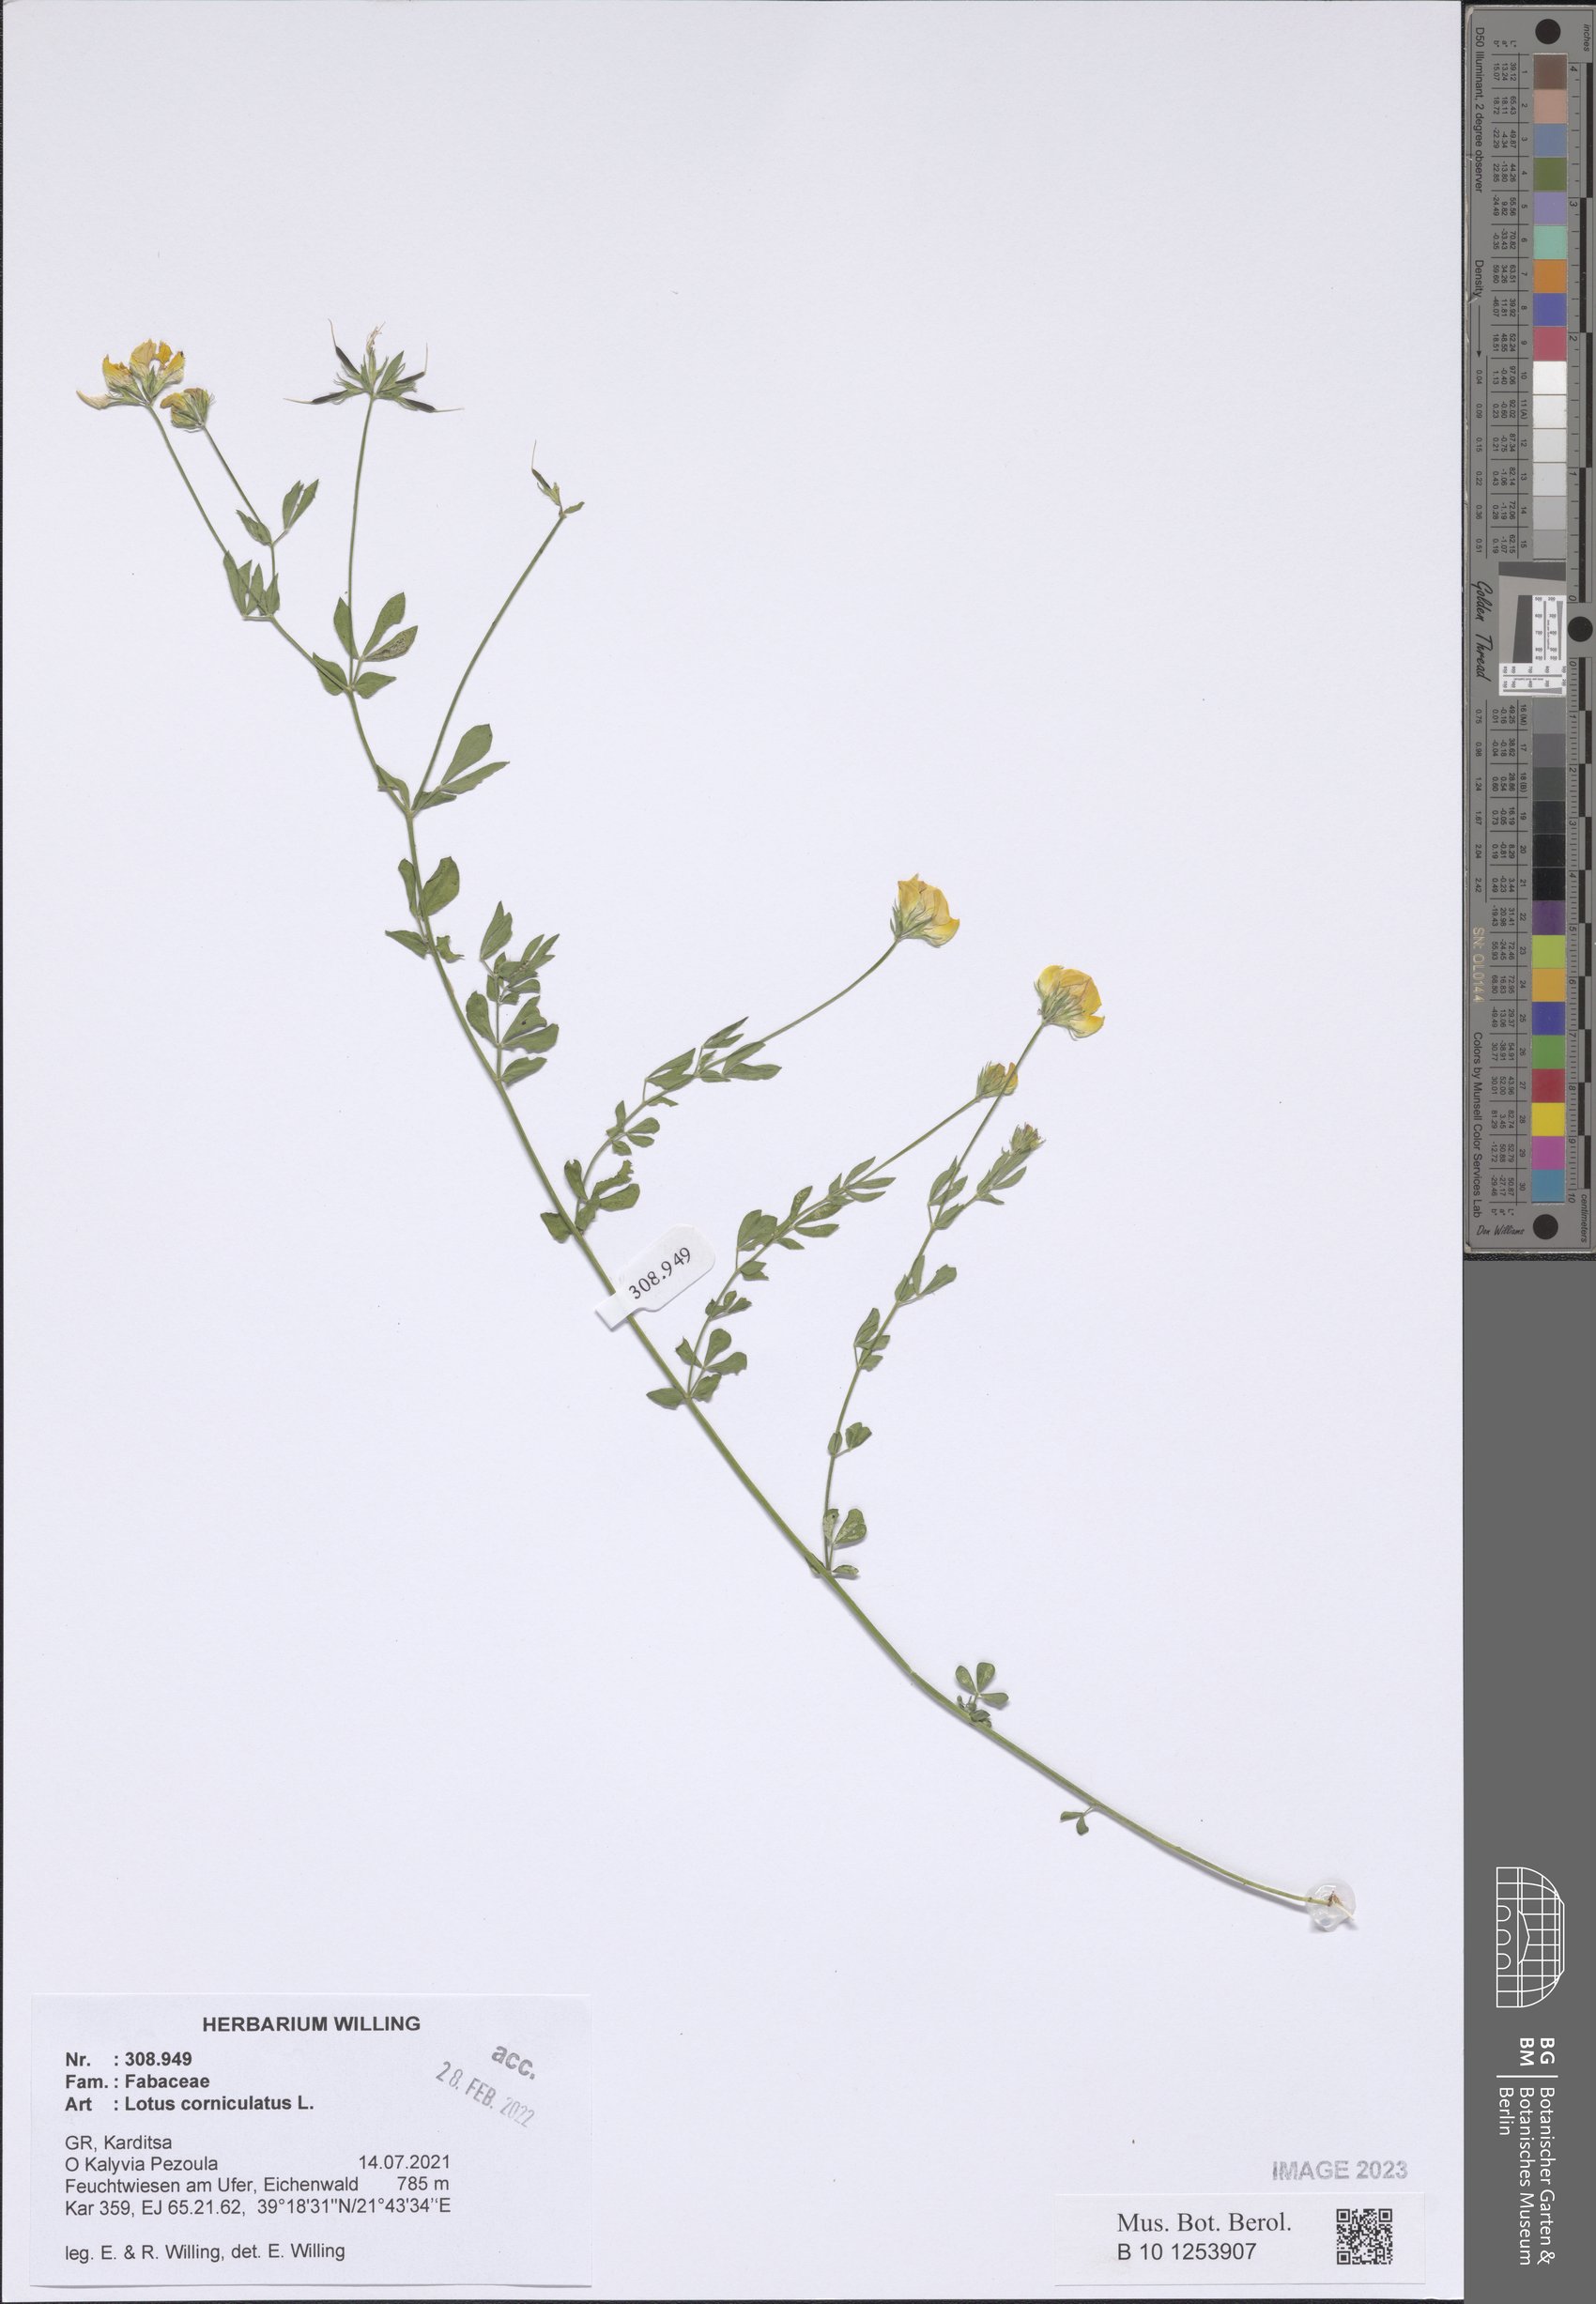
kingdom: Plantae
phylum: Tracheophyta
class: Magnoliopsida
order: Fabales
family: Fabaceae
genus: Lotus
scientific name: Lotus corniculatus
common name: Common bird's-foot-trefoil
